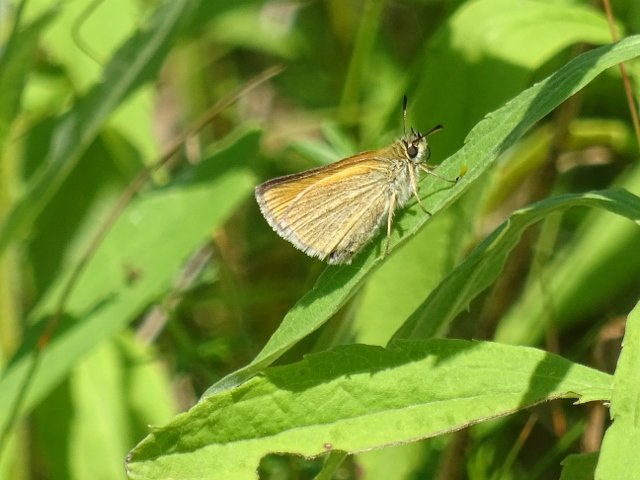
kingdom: Animalia
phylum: Arthropoda
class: Insecta
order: Lepidoptera
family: Hesperiidae
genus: Thymelicus
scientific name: Thymelicus lineola
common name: European Skipper
